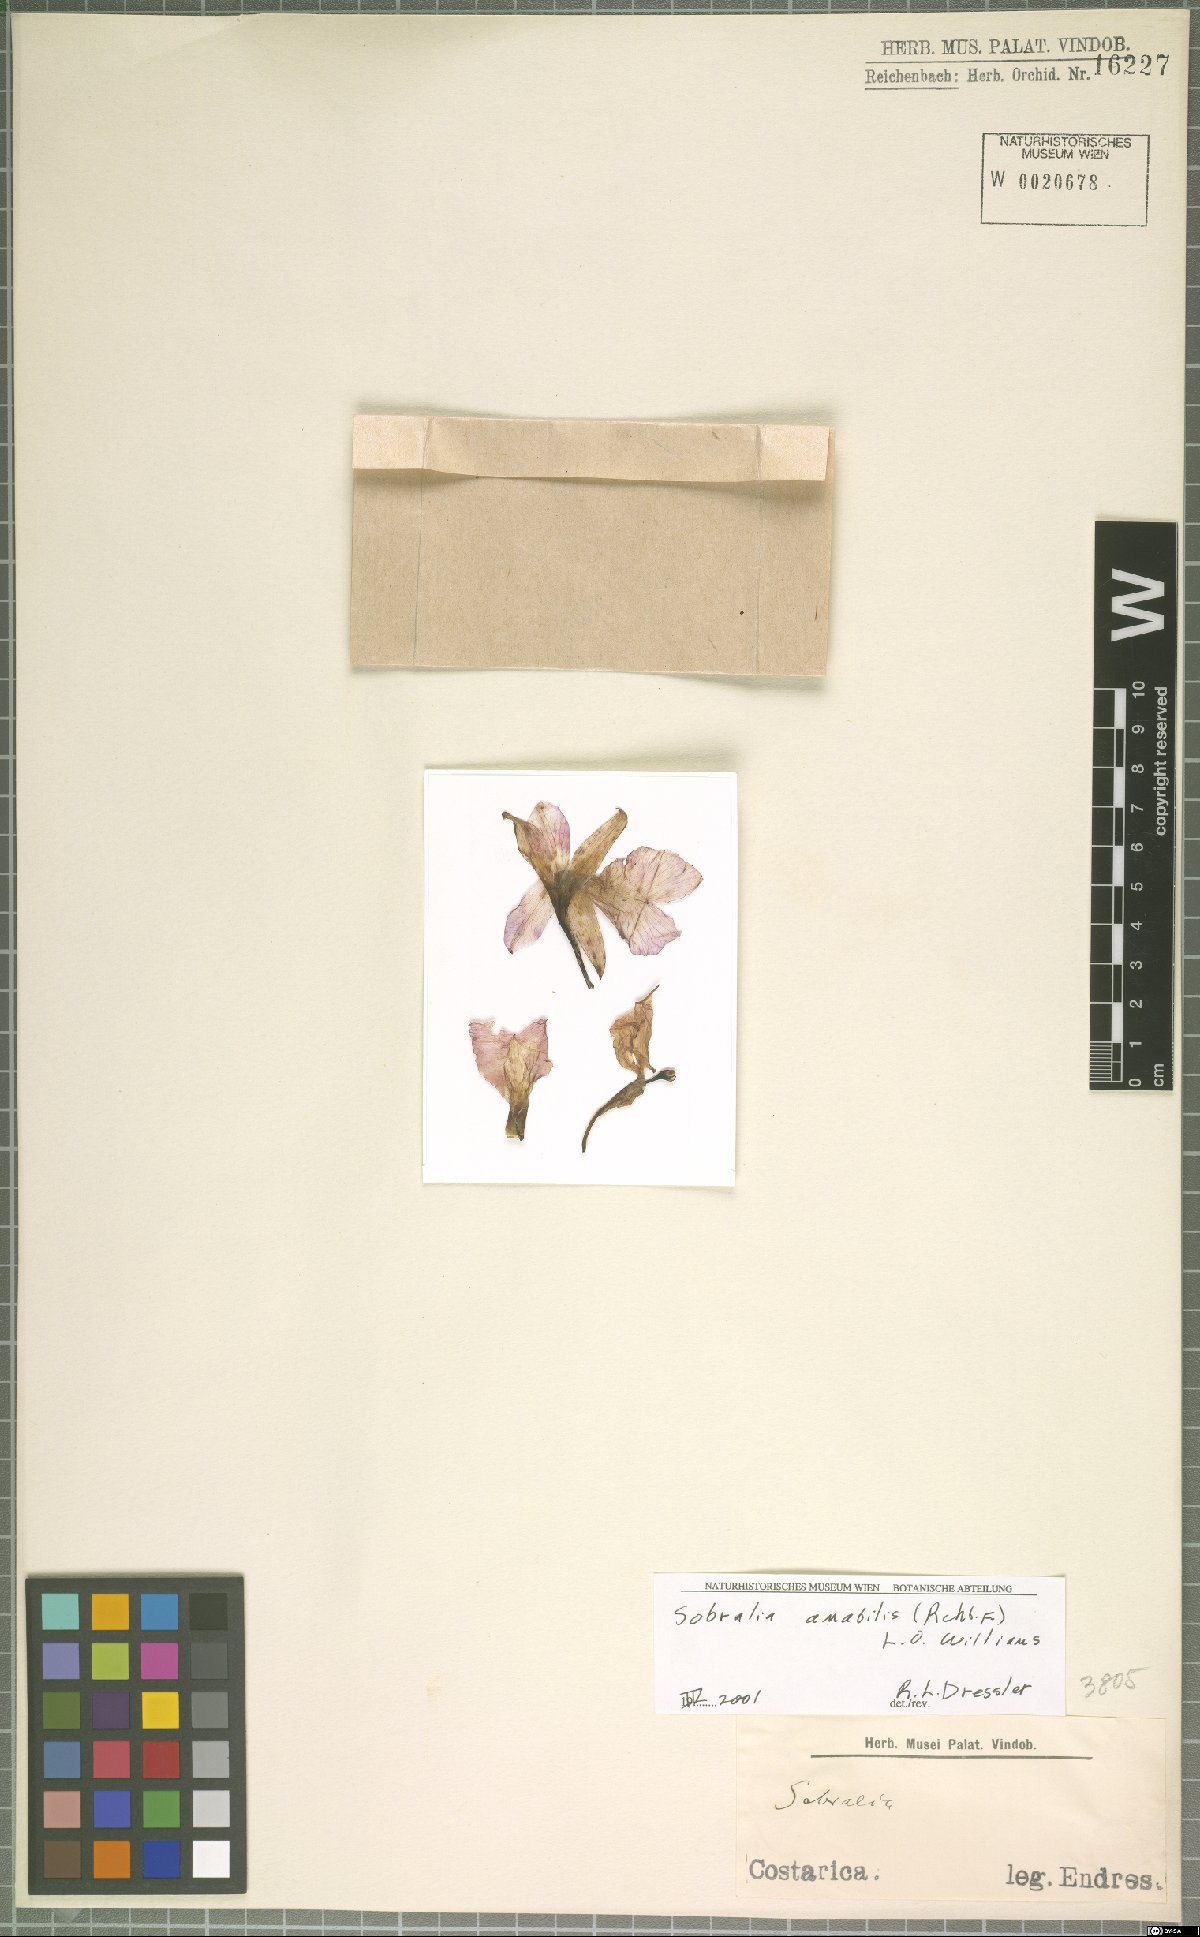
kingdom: Plantae
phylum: Tracheophyta
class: Liliopsida
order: Asparagales
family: Orchidaceae
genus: Sobralia
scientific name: Sobralia amabilis
